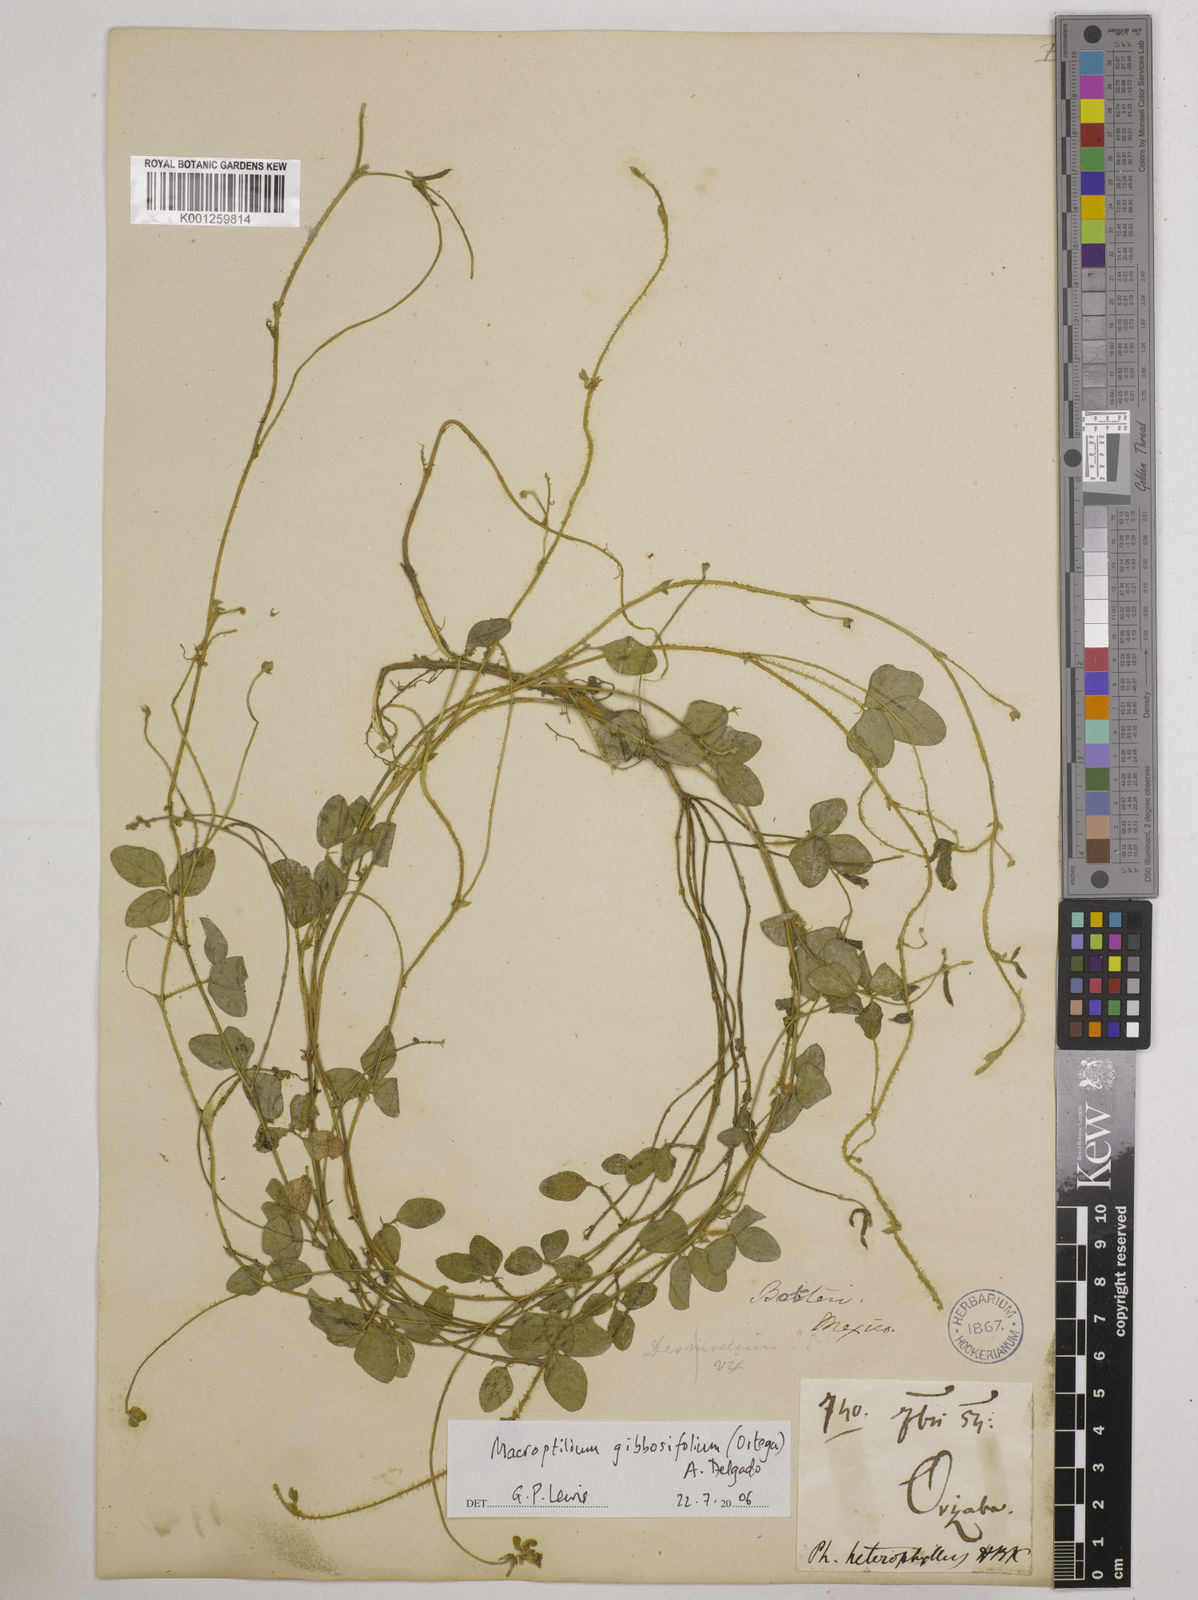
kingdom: Plantae
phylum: Tracheophyta
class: Magnoliopsida
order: Fabales
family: Fabaceae
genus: Macroptilium
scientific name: Macroptilium gibbosifolium
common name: Variableleaf bushbean
